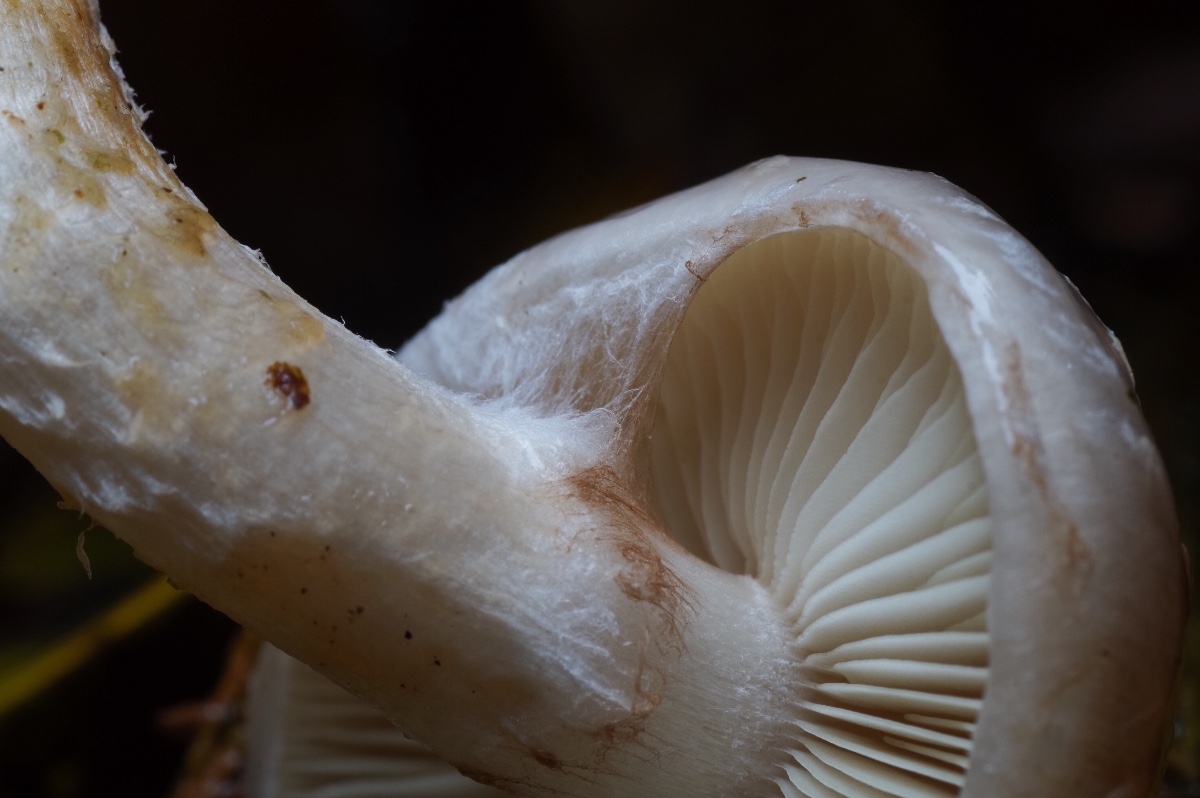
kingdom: Fungi
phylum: Basidiomycota
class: Agaricomycetes
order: Agaricales
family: Strophariaceae
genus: Pholiota
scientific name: Pholiota lenta
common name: løv-skælhat
